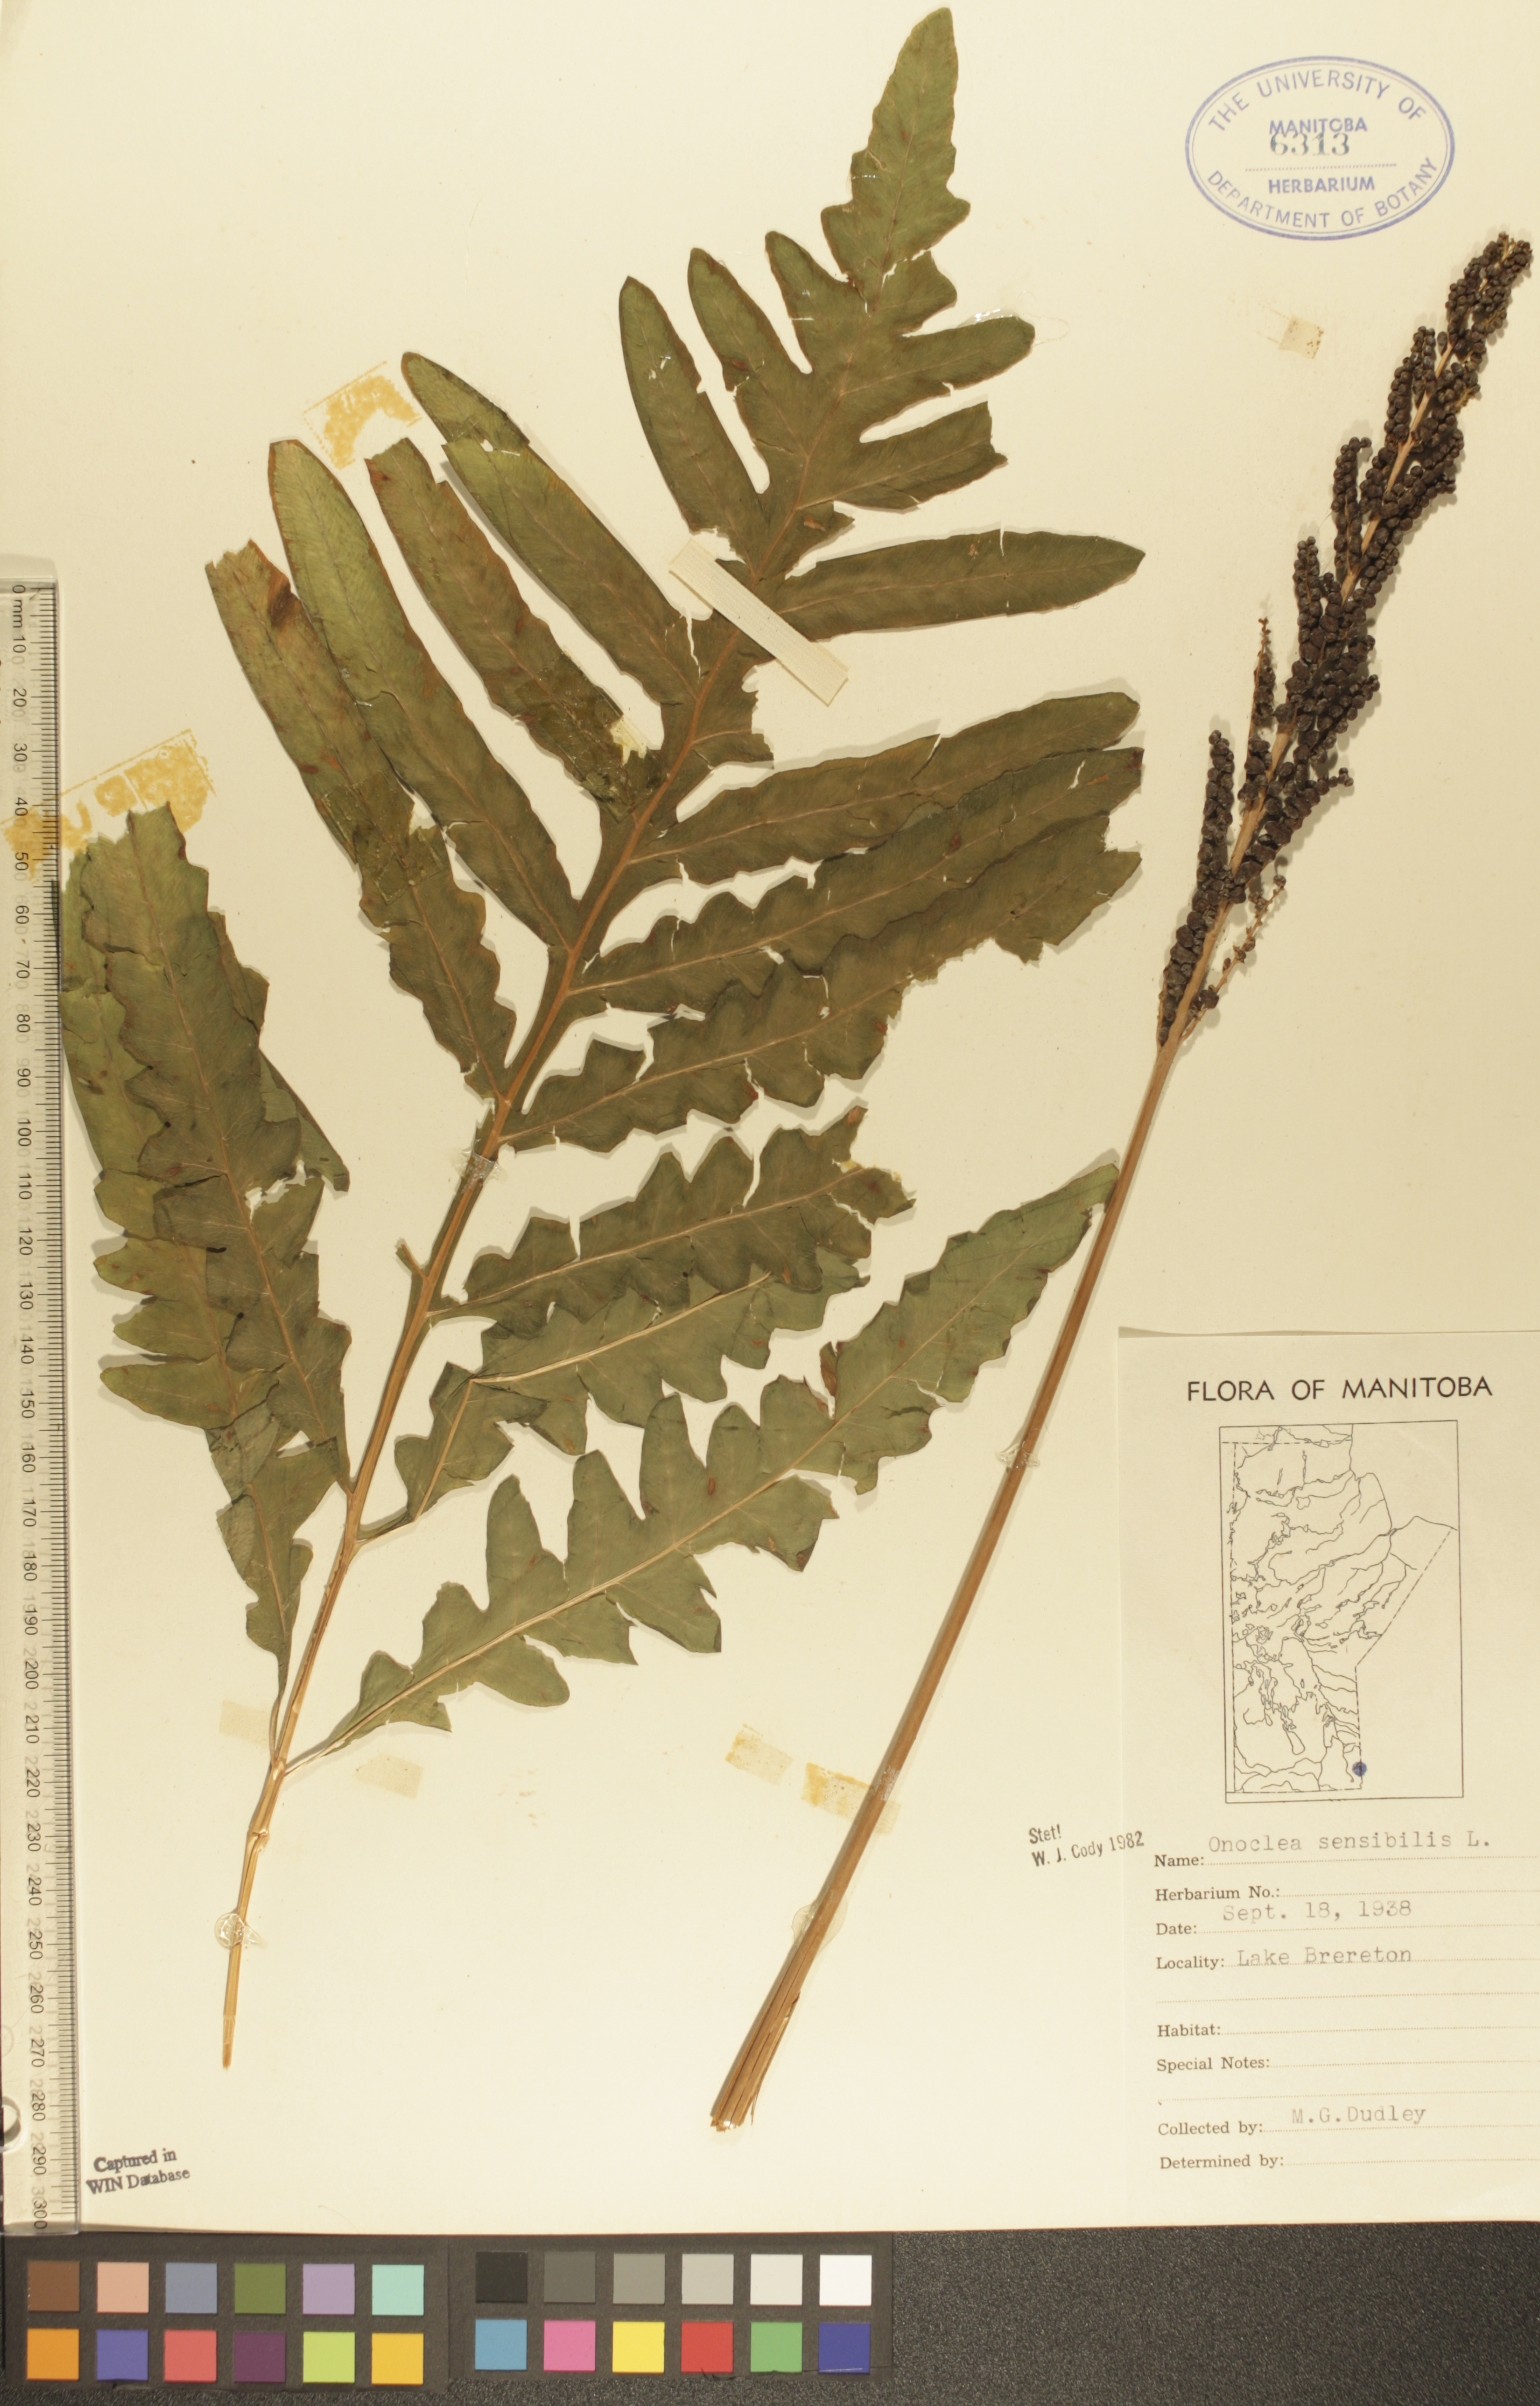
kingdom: Plantae
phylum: Tracheophyta
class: Polypodiopsida
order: Polypodiales
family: Onocleaceae
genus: Onoclea
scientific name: Onoclea sensibilis
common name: Sensitive fern
